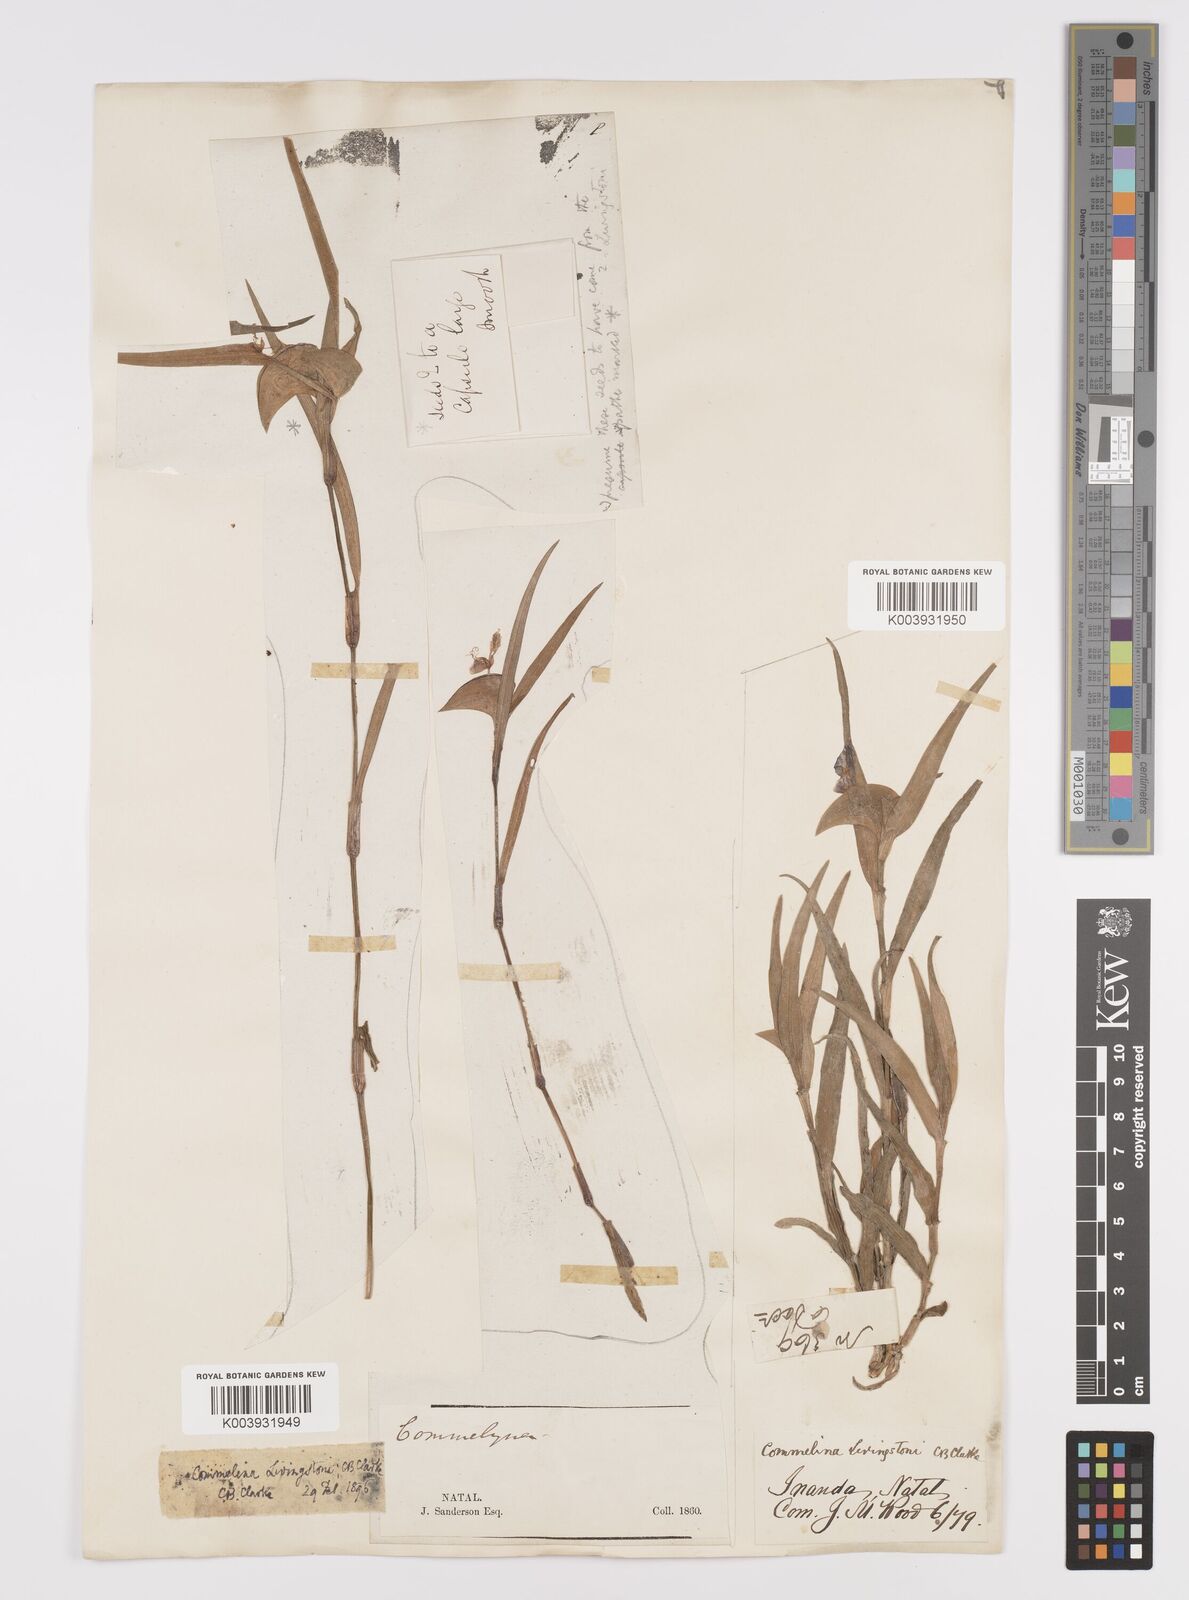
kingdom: Plantae
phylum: Tracheophyta
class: Liliopsida
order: Commelinales
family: Commelinaceae
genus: Commelina
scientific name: Commelina erecta
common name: Blousel blommetjie
